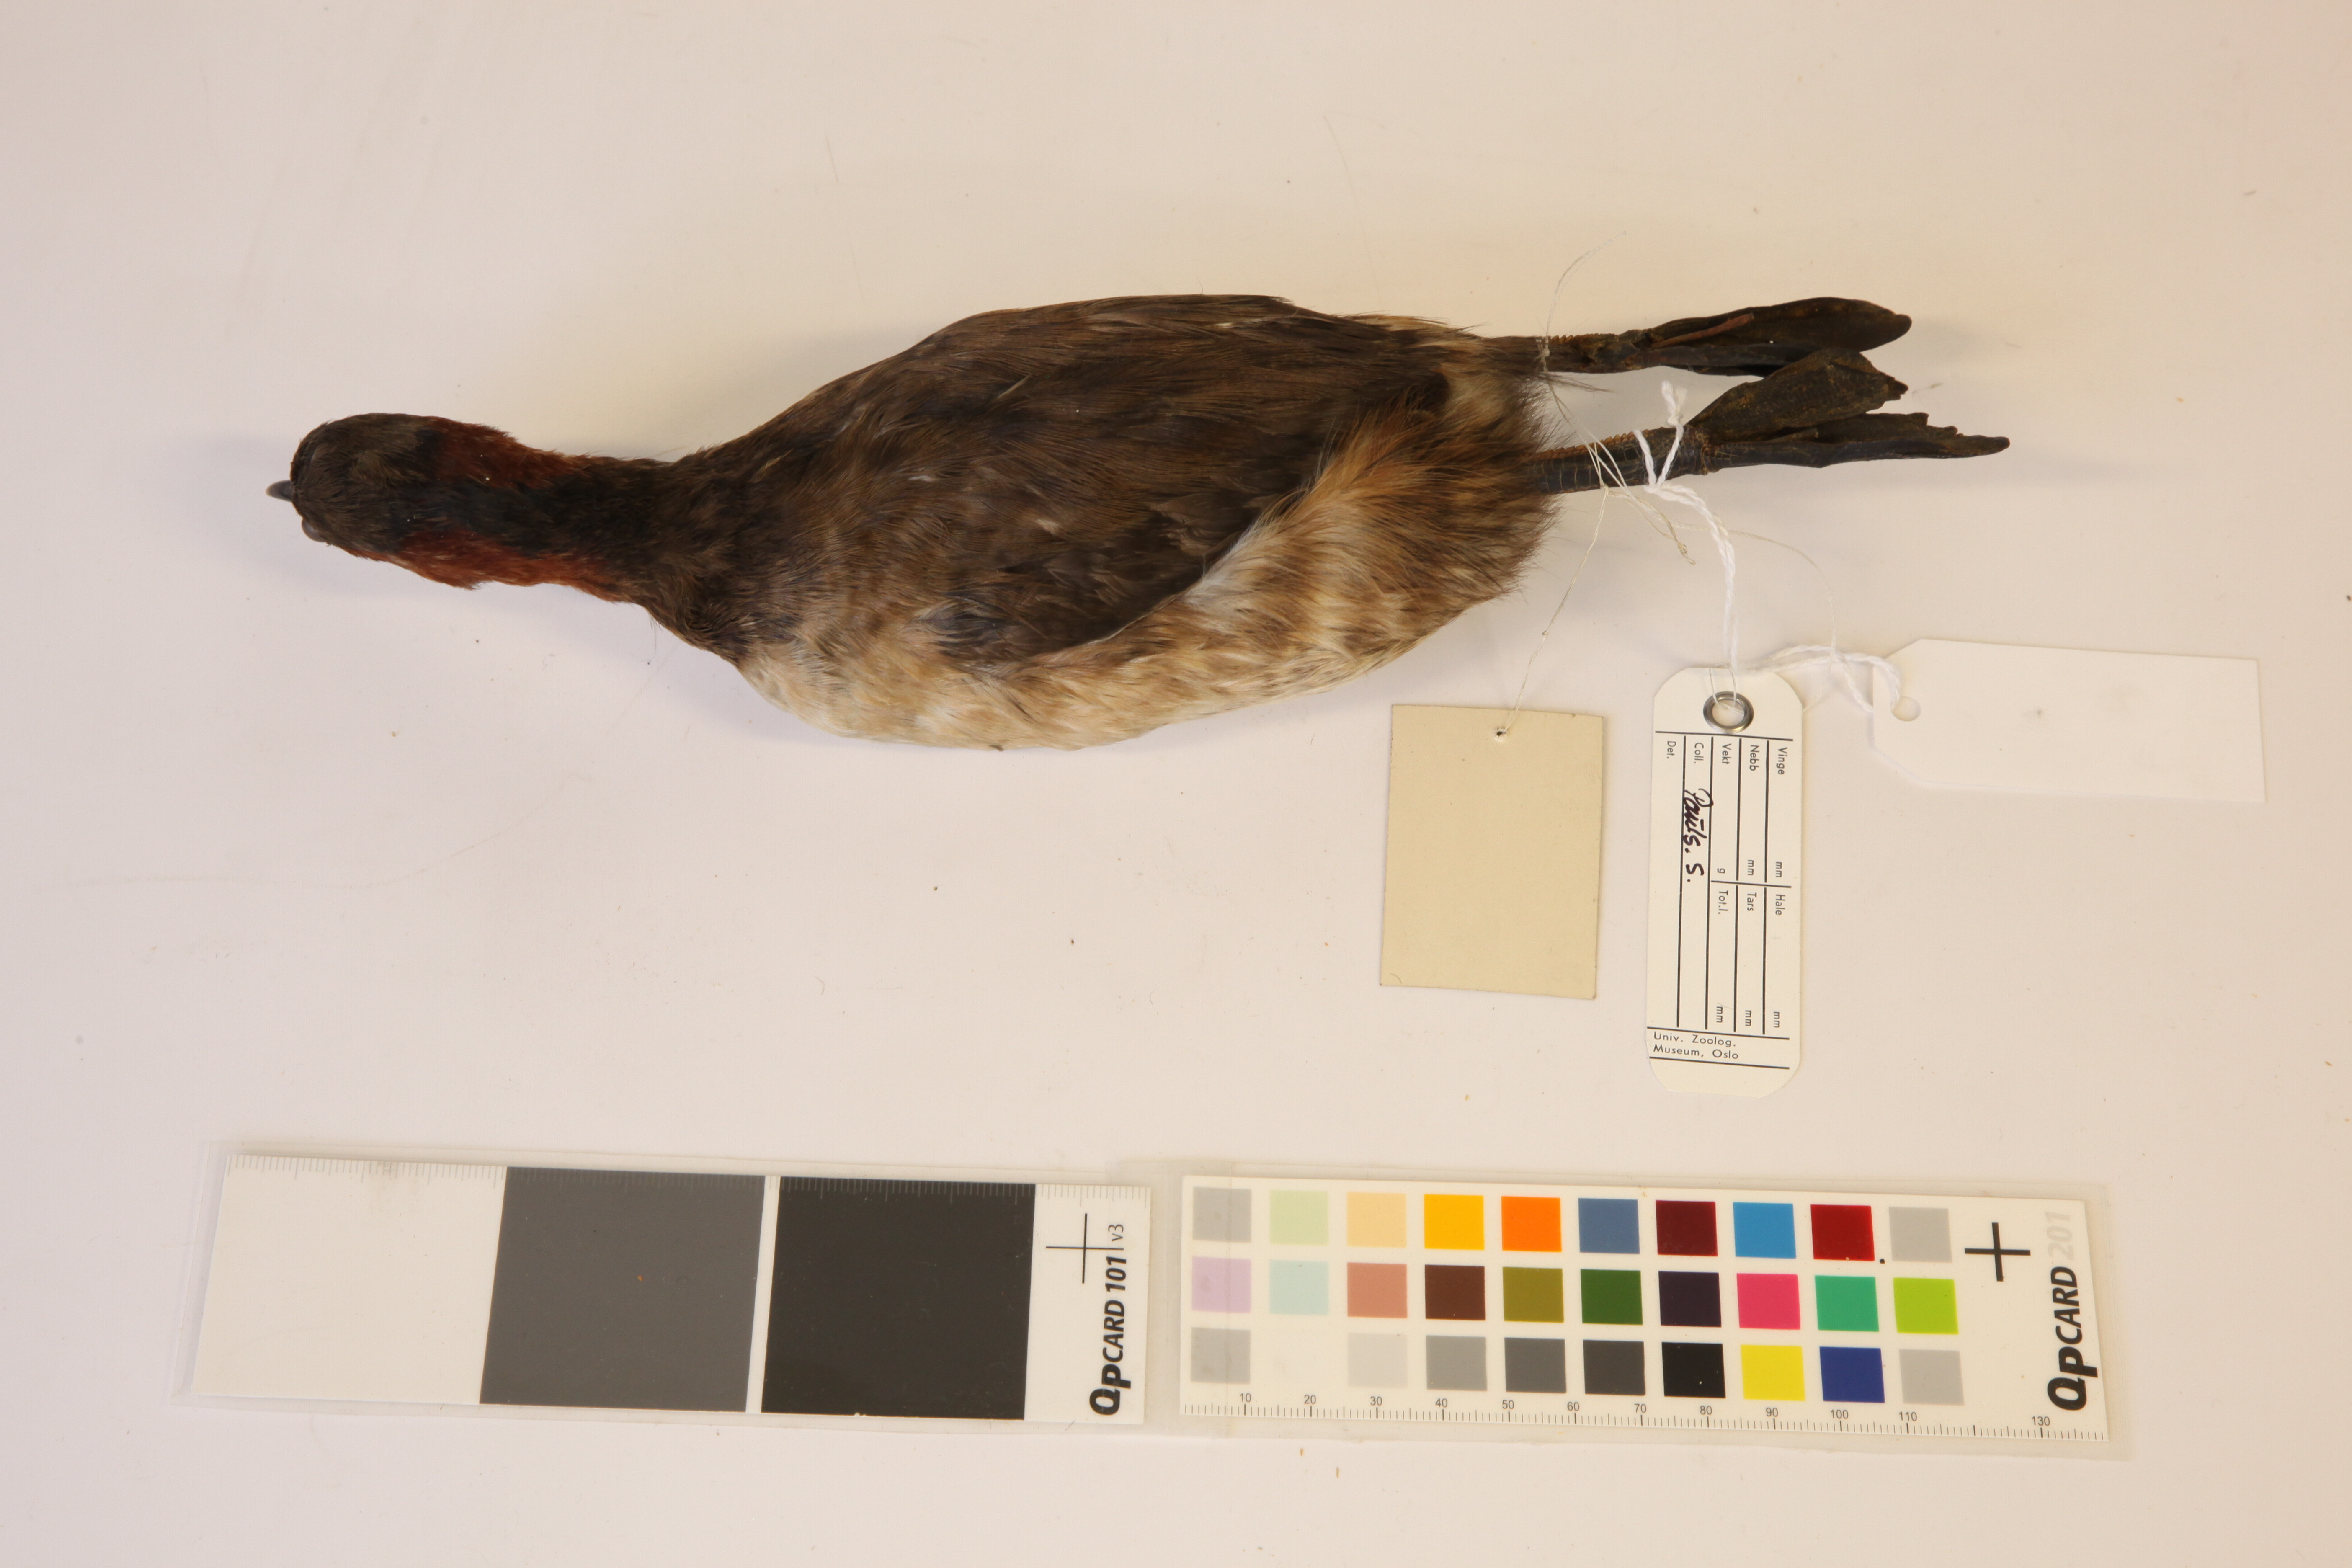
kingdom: Animalia
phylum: Chordata
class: Aves
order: Podicipediformes
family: Podicipedidae
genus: Tachybaptus
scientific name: Tachybaptus ruficollis
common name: Little grebe
